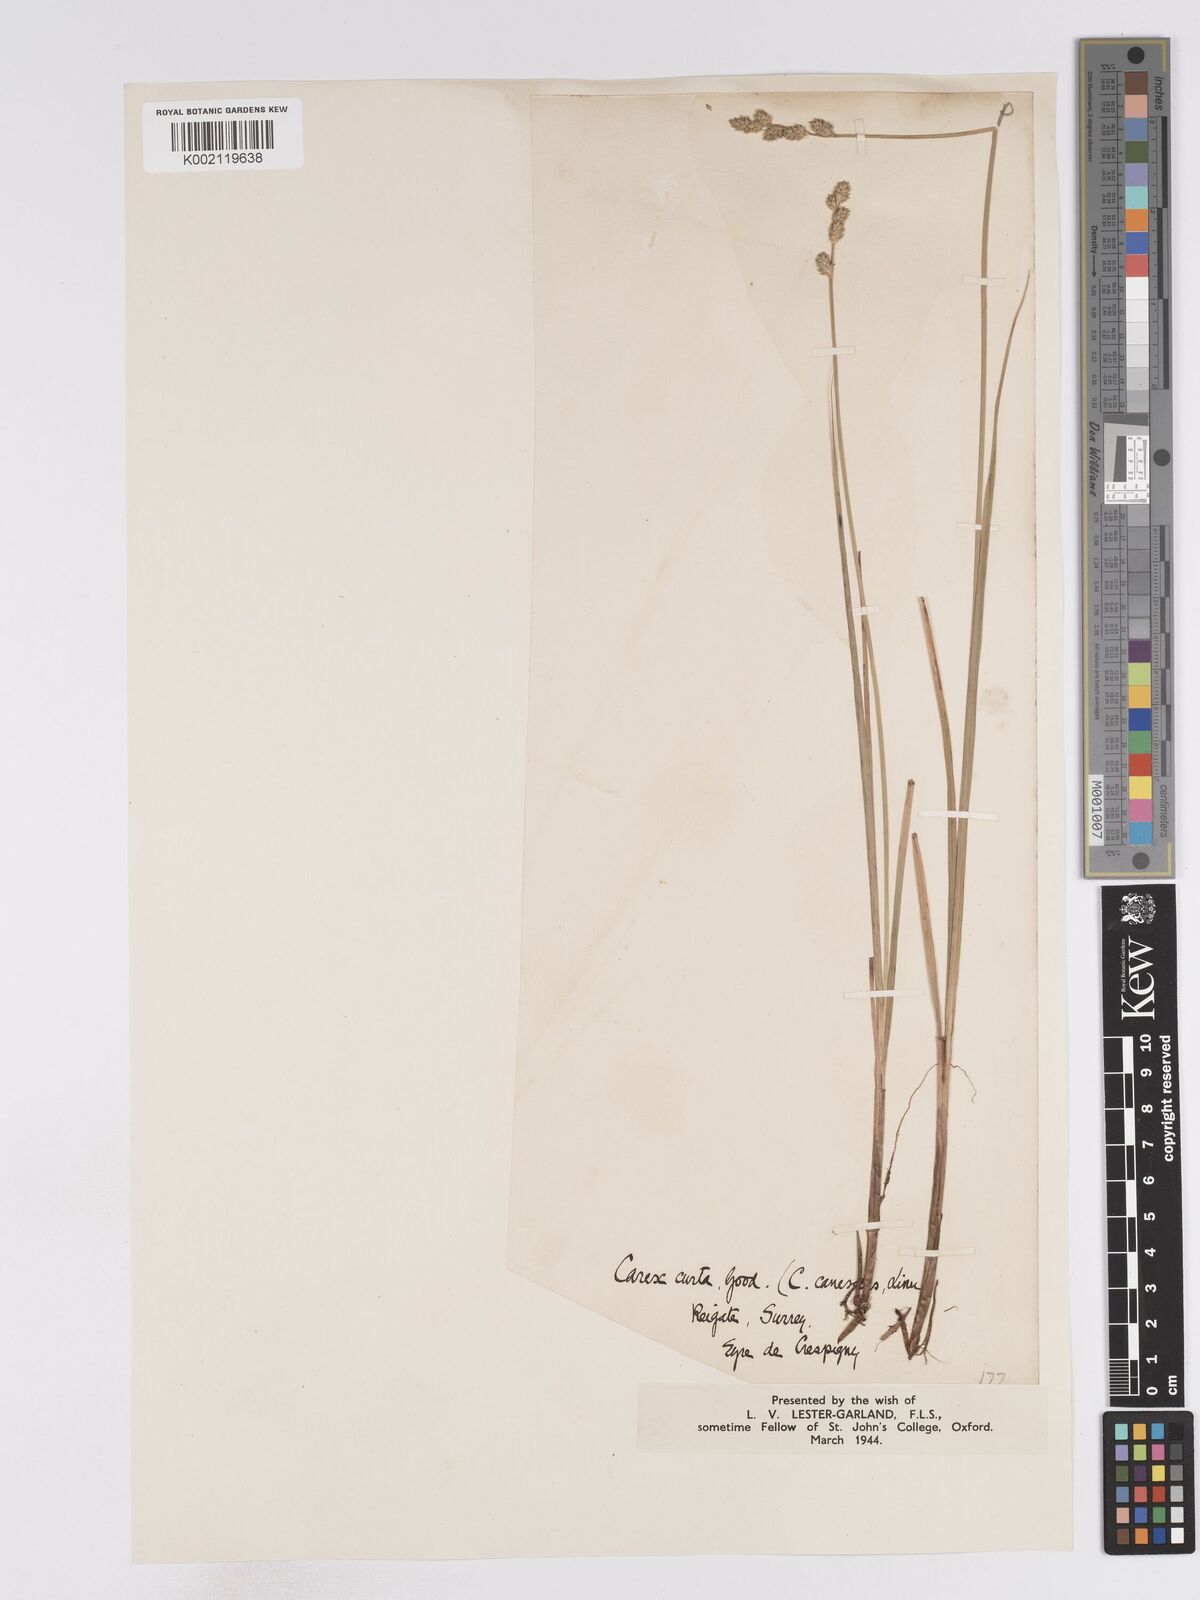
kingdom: Plantae
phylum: Tracheophyta
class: Liliopsida
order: Poales
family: Cyperaceae
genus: Carex
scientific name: Carex curta
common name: White sedge
